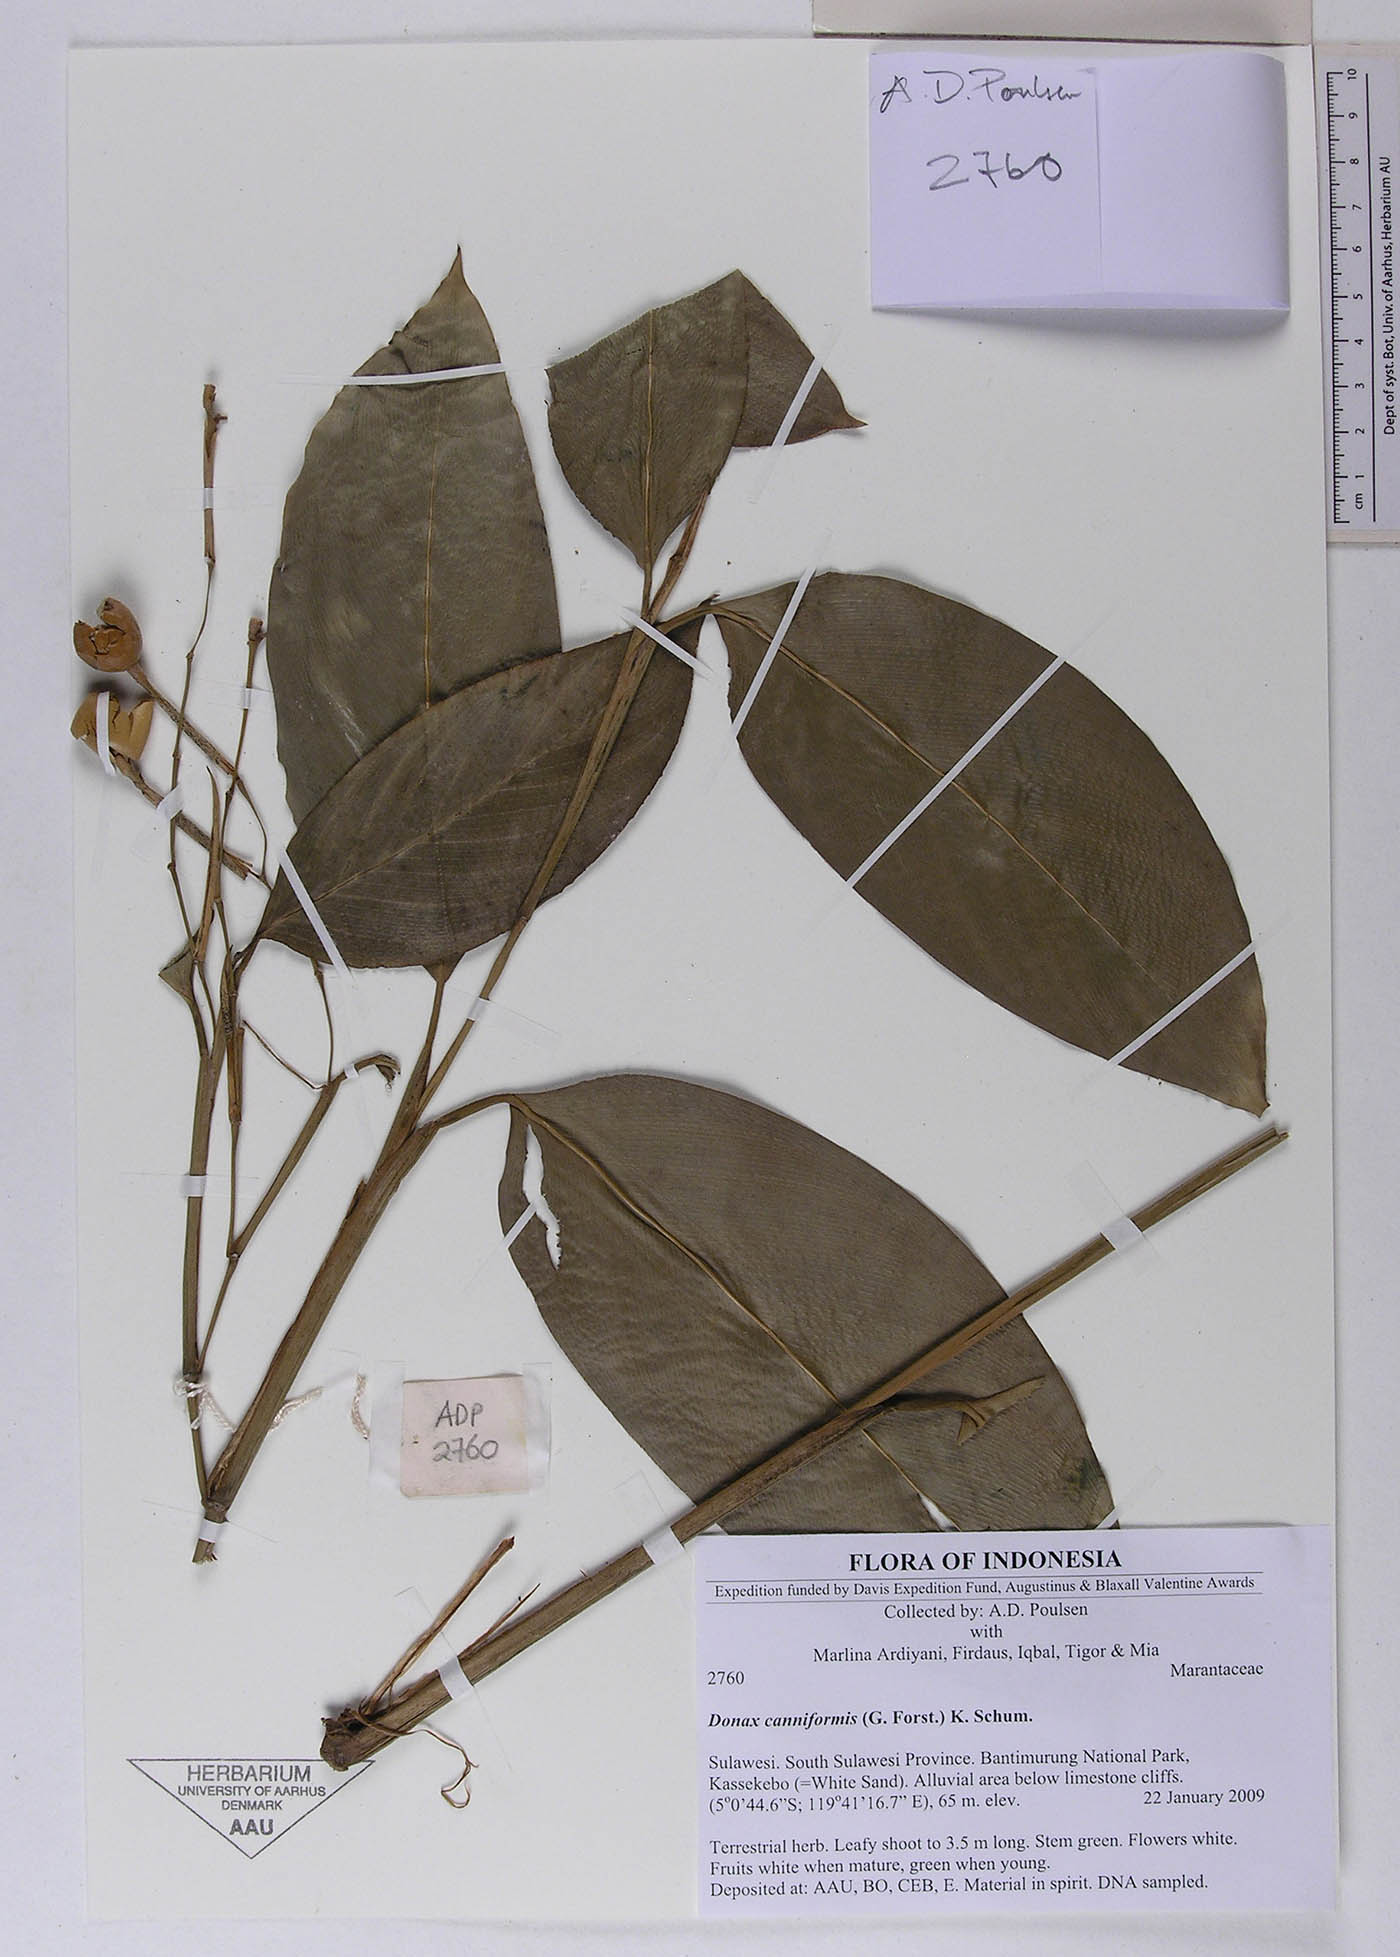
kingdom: Plantae
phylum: Tracheophyta
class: Liliopsida
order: Zingiberales
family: Marantaceae
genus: Donax
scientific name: Donax canniformis
